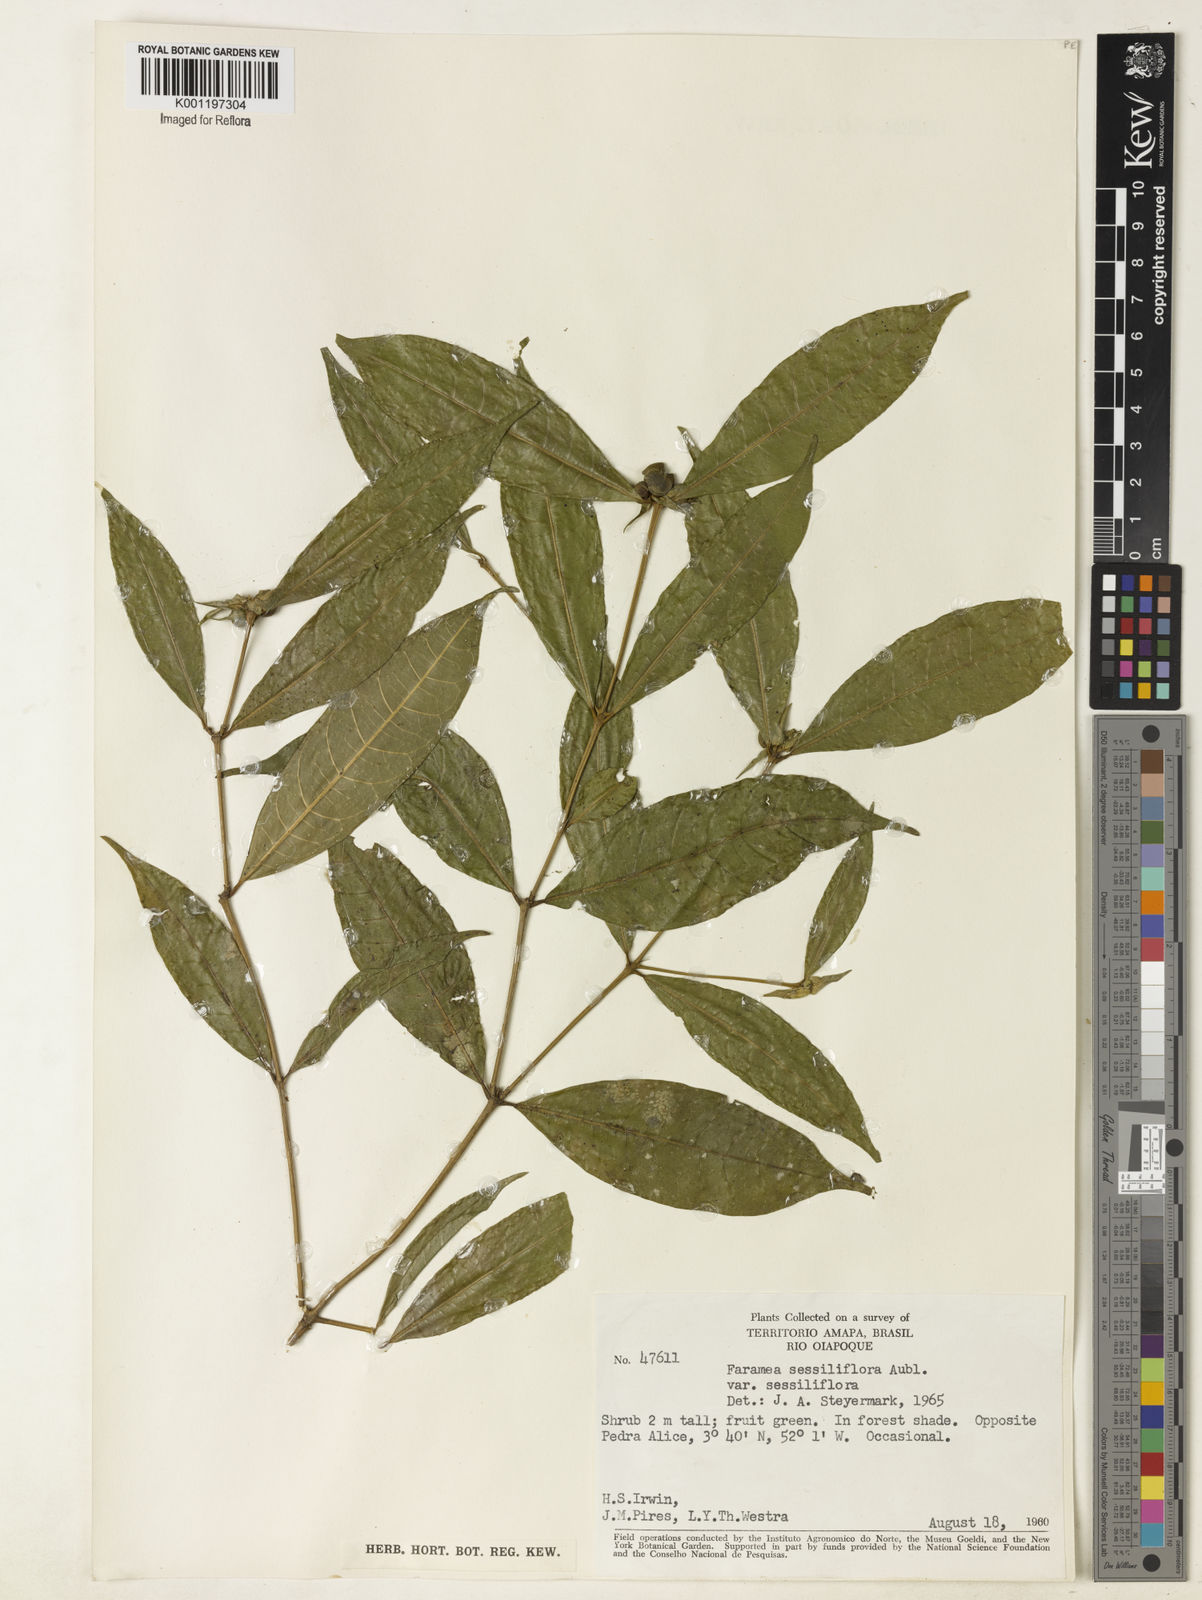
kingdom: Plantae
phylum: Tracheophyta
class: Magnoliopsida
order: Gentianales
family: Rubiaceae
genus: Faramea
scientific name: Faramea sessiliflora
